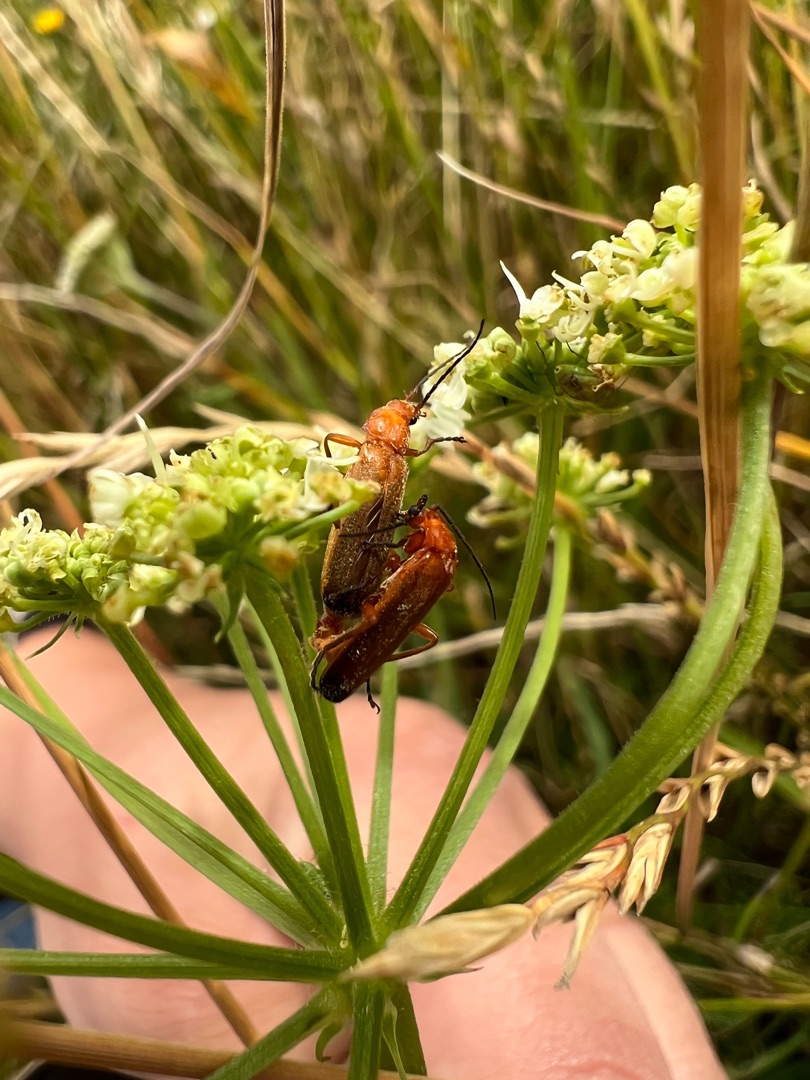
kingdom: Animalia
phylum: Arthropoda
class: Insecta
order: Coleoptera
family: Cantharidae
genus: Rhagonycha
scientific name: Rhagonycha fulva
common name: Præstebille
